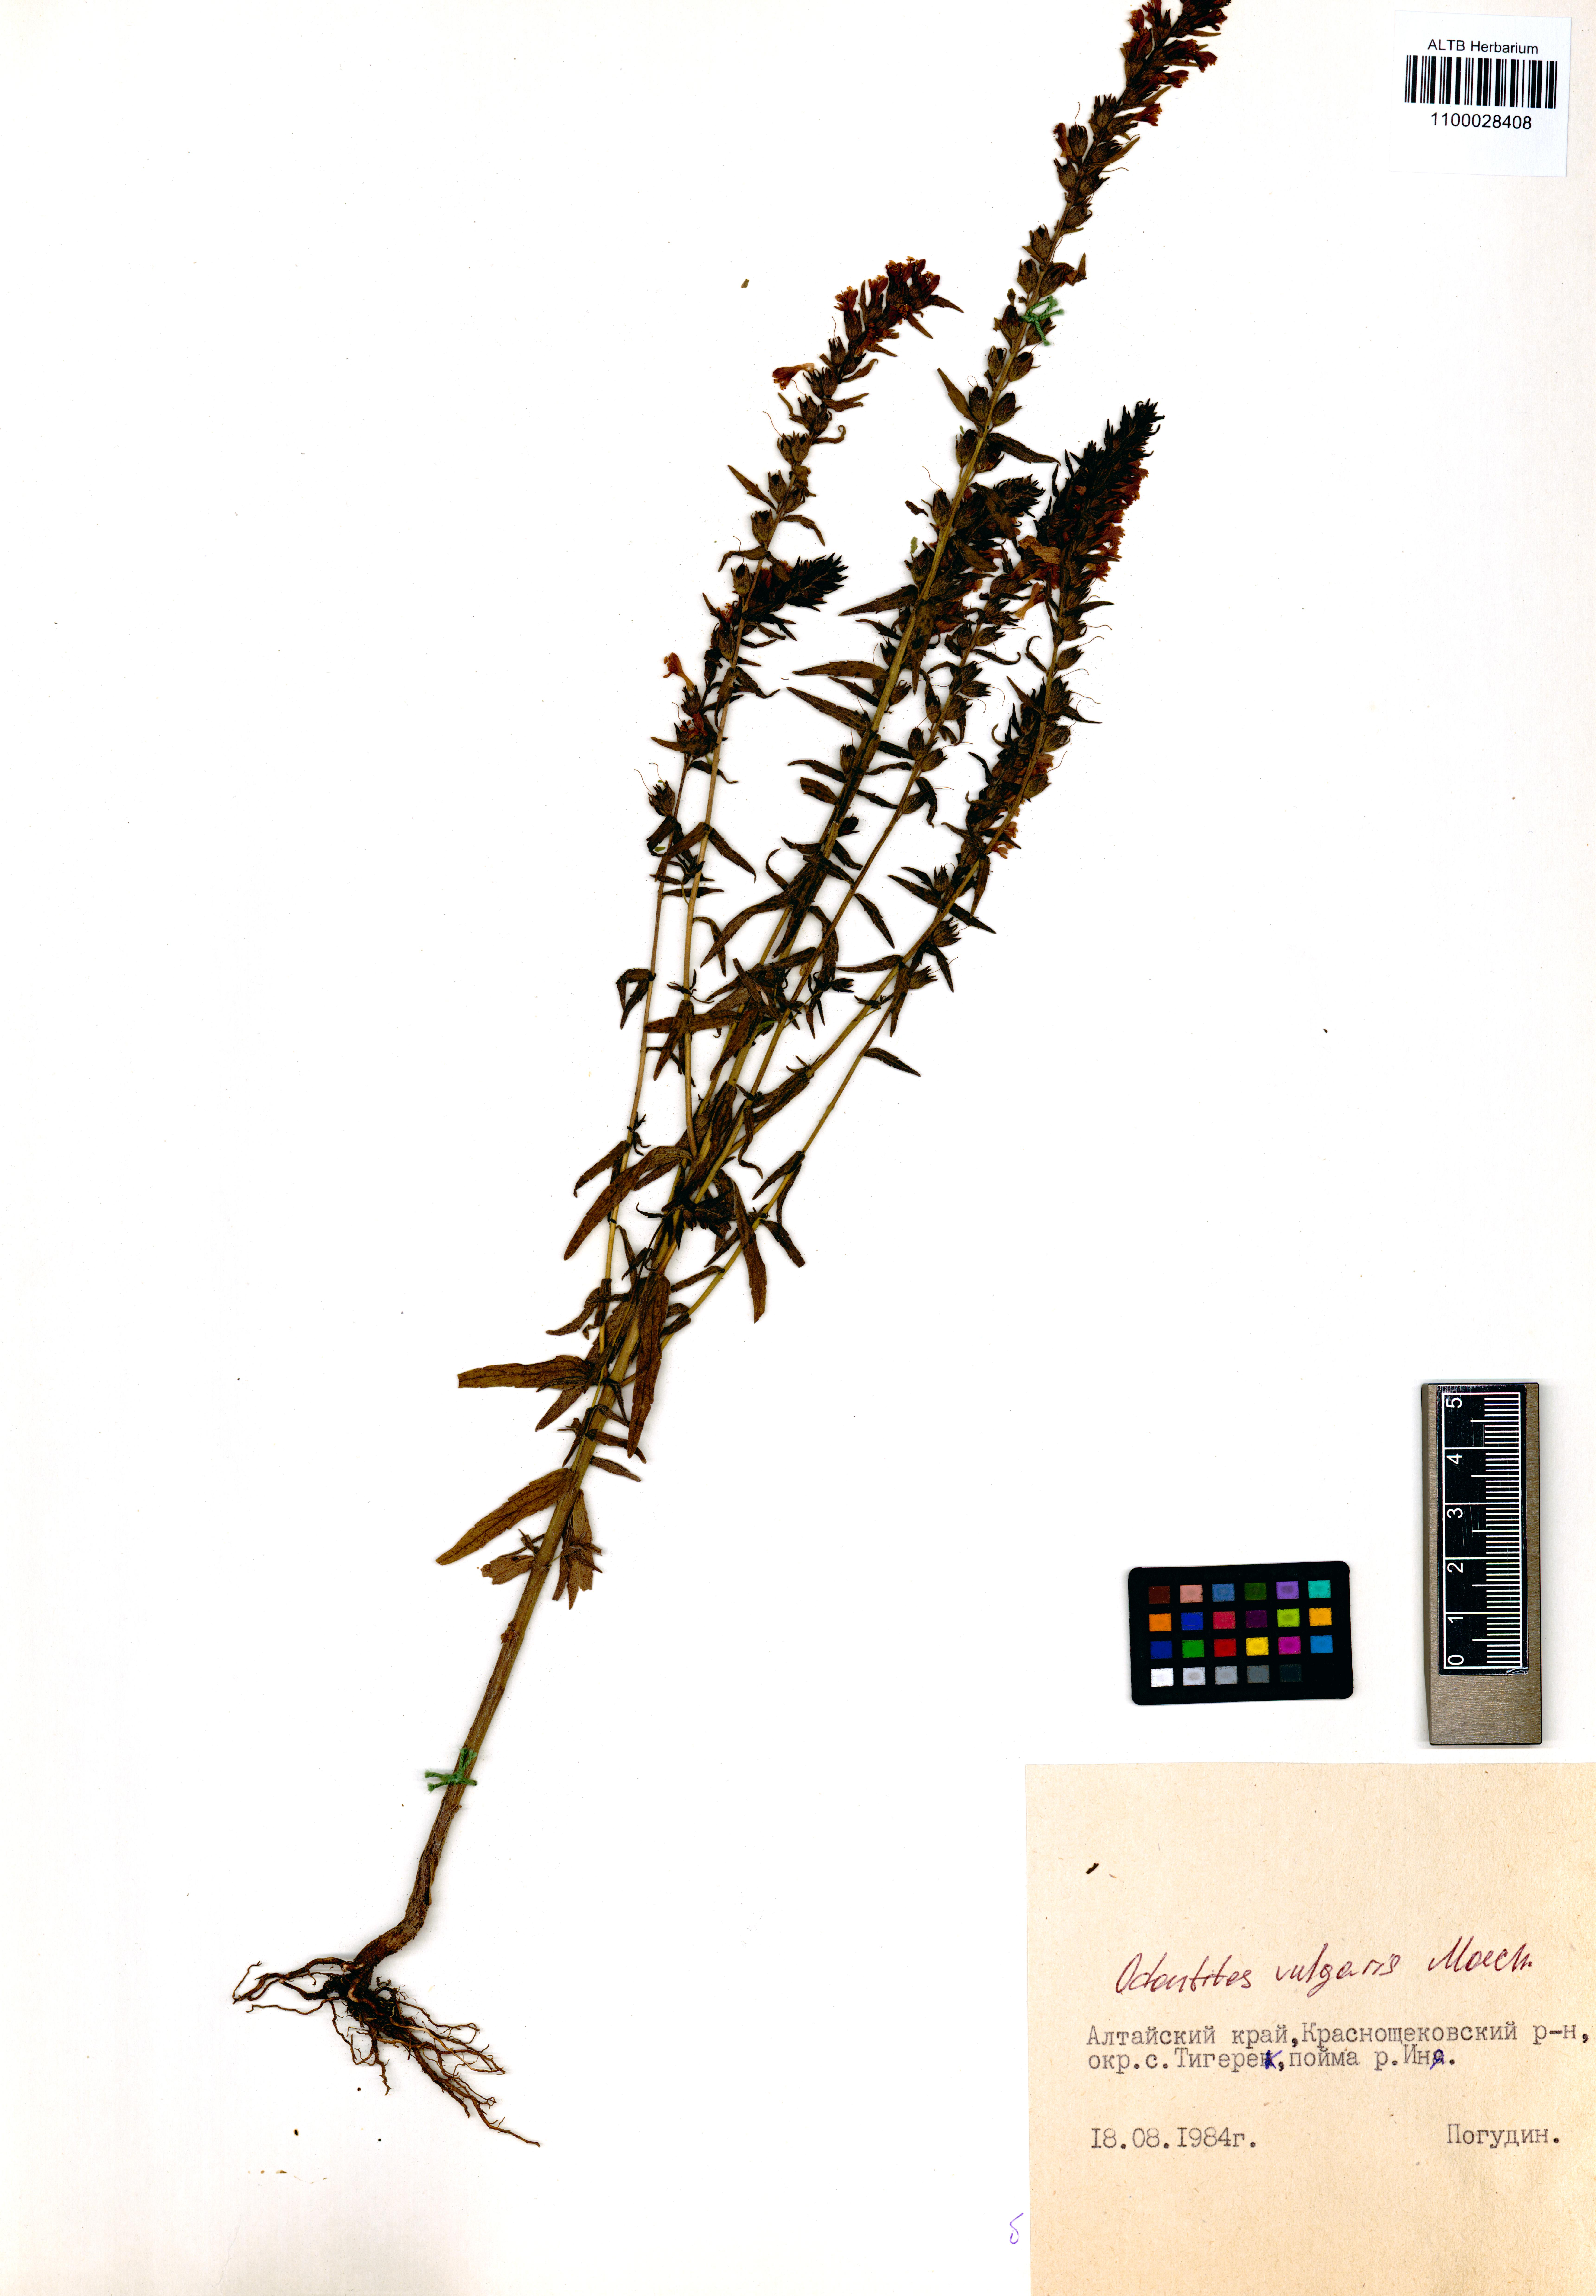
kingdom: Plantae
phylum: Tracheophyta
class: Magnoliopsida
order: Lamiales
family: Orobanchaceae
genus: Odontites
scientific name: Odontites vulgaris
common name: Broomrape
